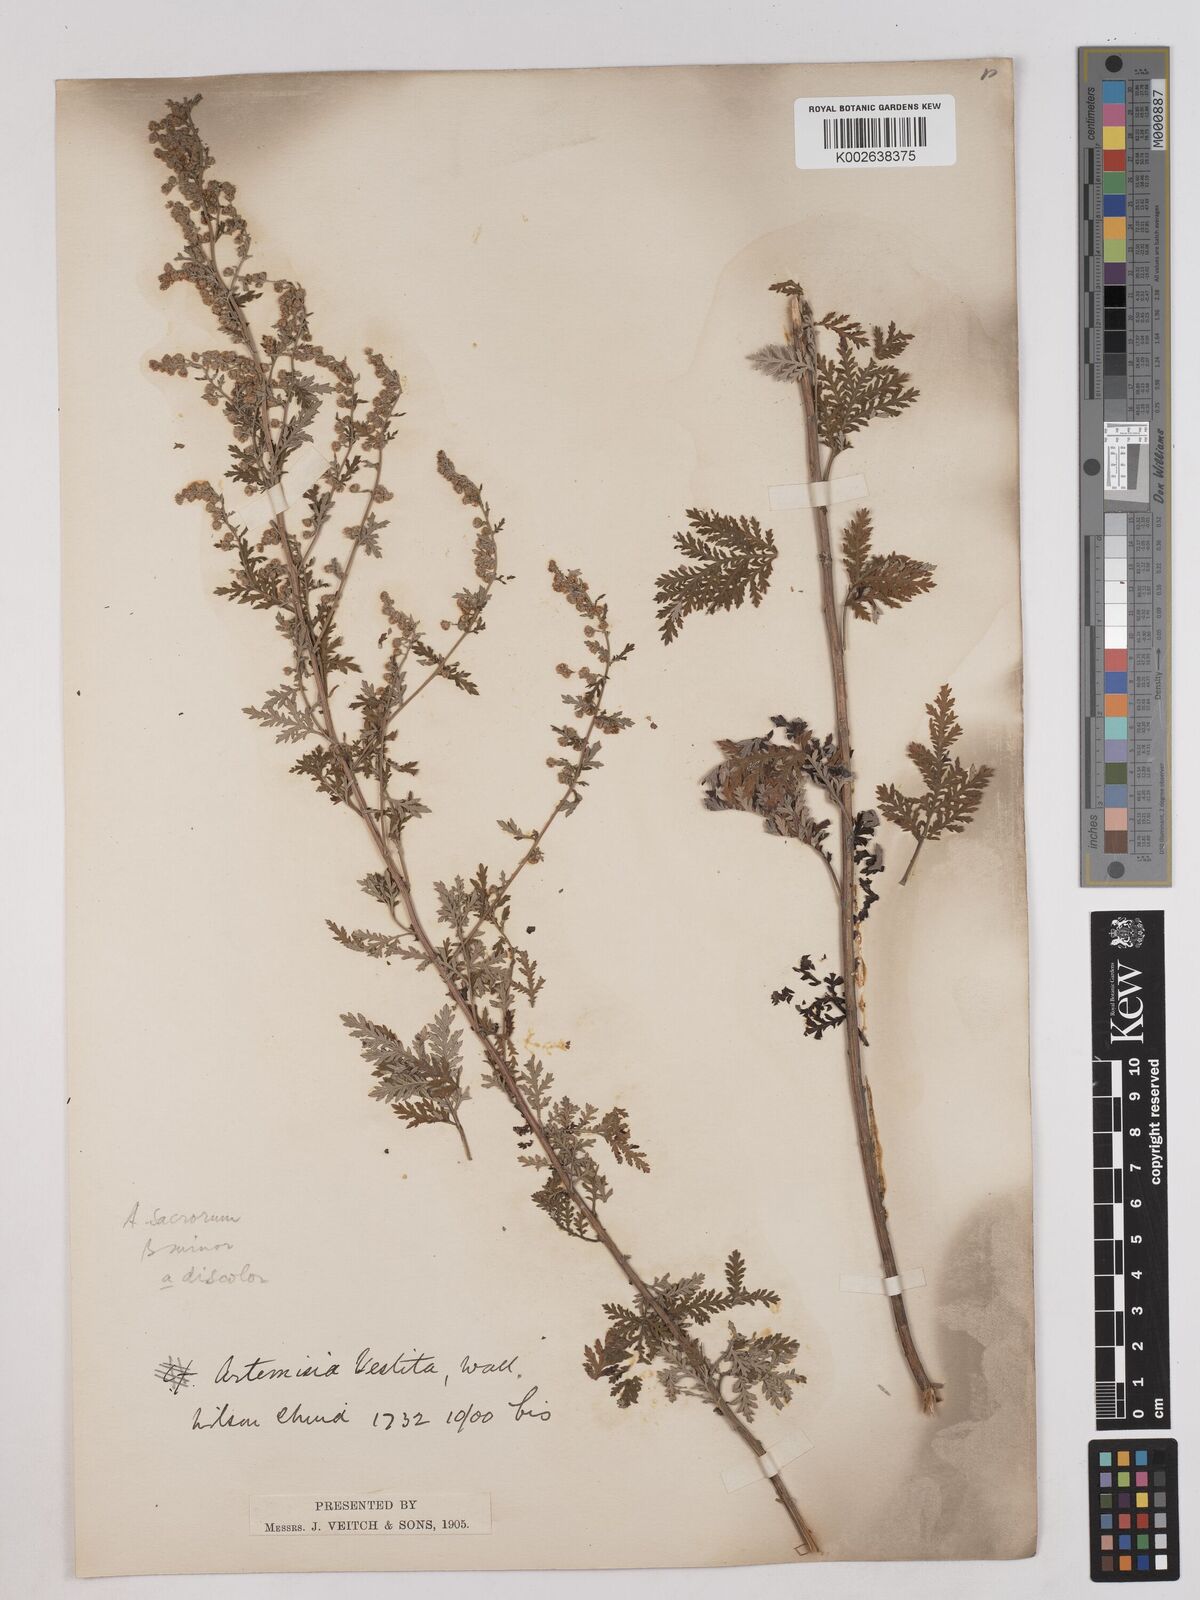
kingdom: Plantae
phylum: Tracheophyta
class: Magnoliopsida
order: Asterales
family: Asteraceae
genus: Artemisia
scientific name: Artemisia gmelinii
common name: Gmelin's wormwood
